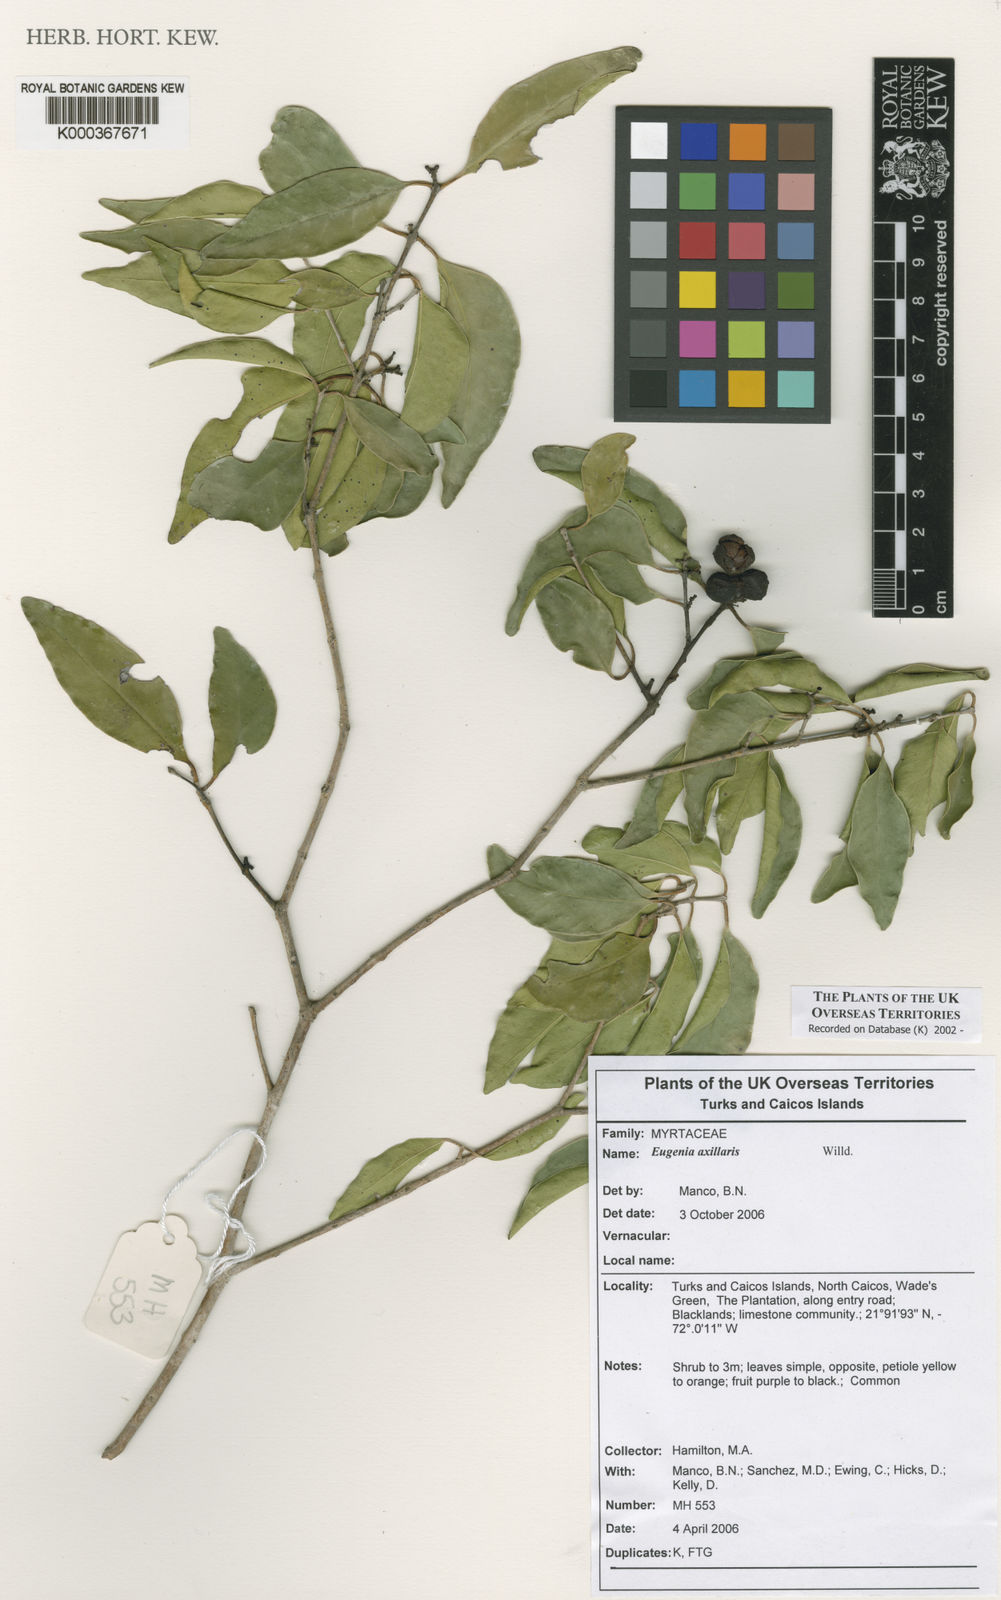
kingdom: Plantae
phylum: Tracheophyta
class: Magnoliopsida
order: Myrtales
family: Myrtaceae
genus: Eugenia
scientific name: Eugenia axillaris
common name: Choaky berry
